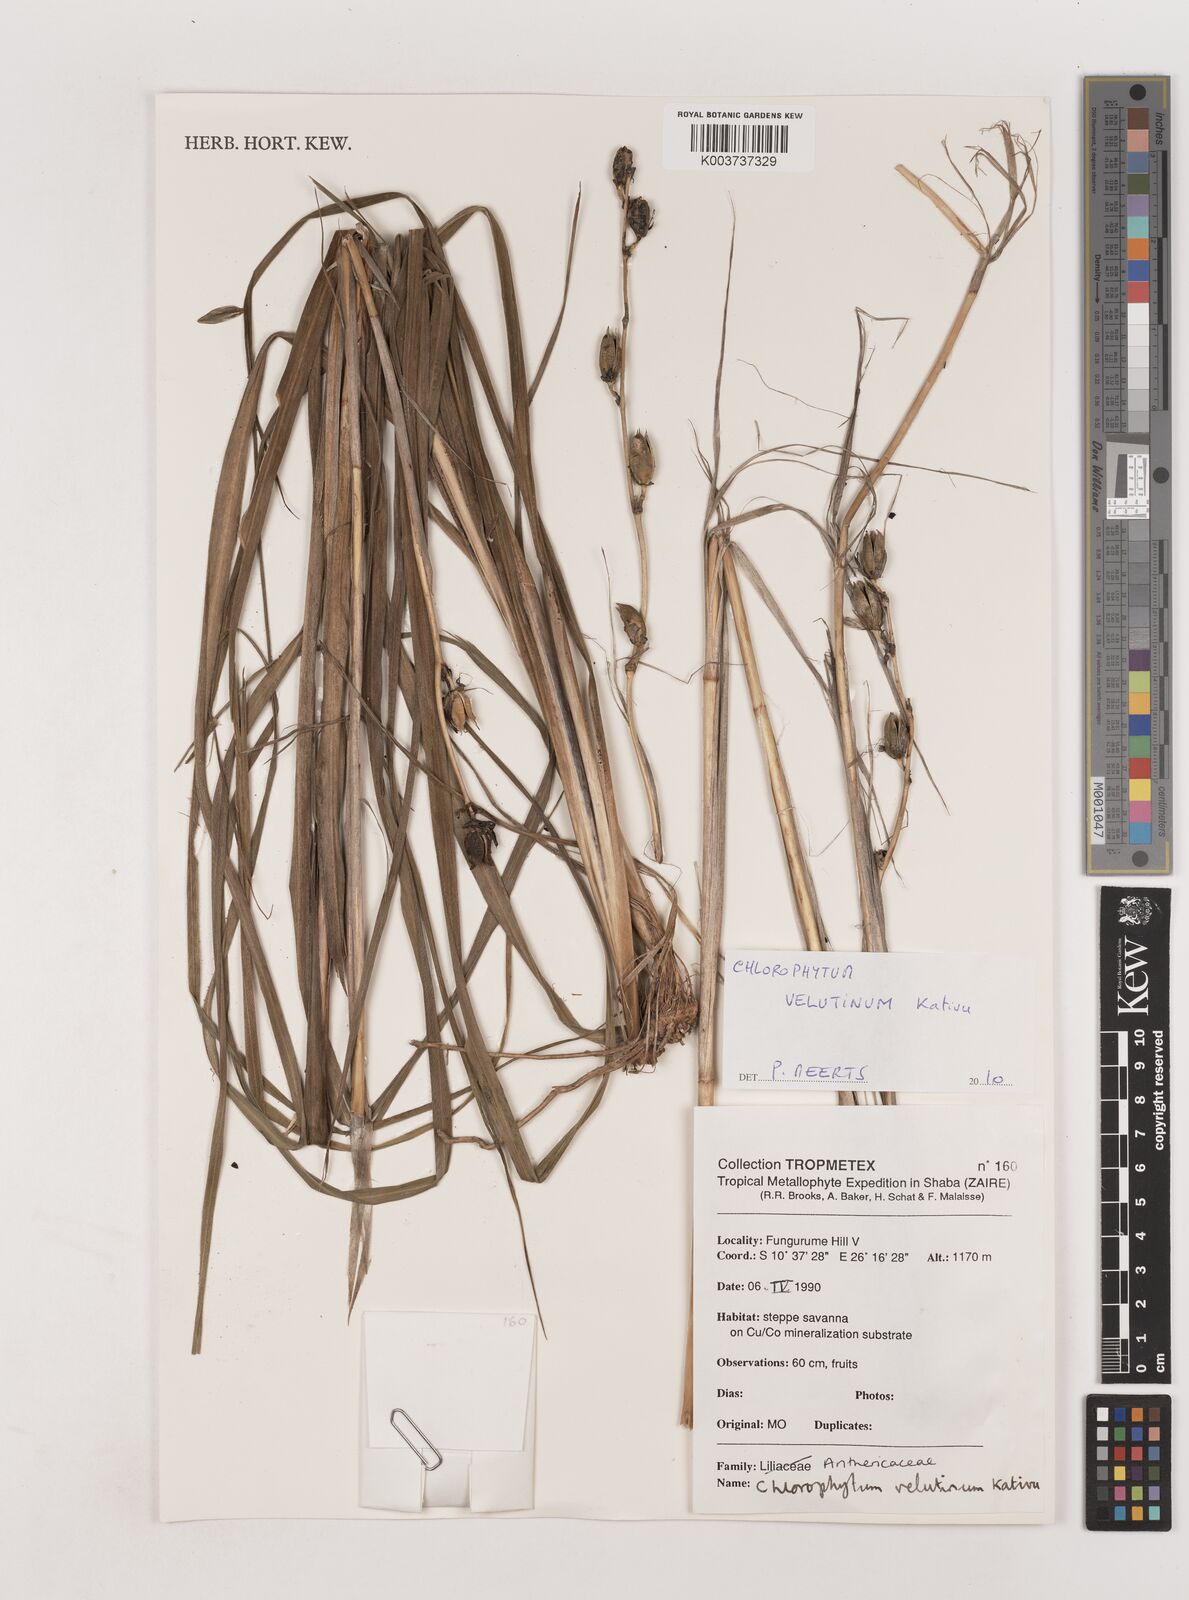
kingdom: Plantae
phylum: Tracheophyta
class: Liliopsida
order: Asparagales
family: Asparagaceae
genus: Chlorophytum
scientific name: Chlorophytum velutinum
